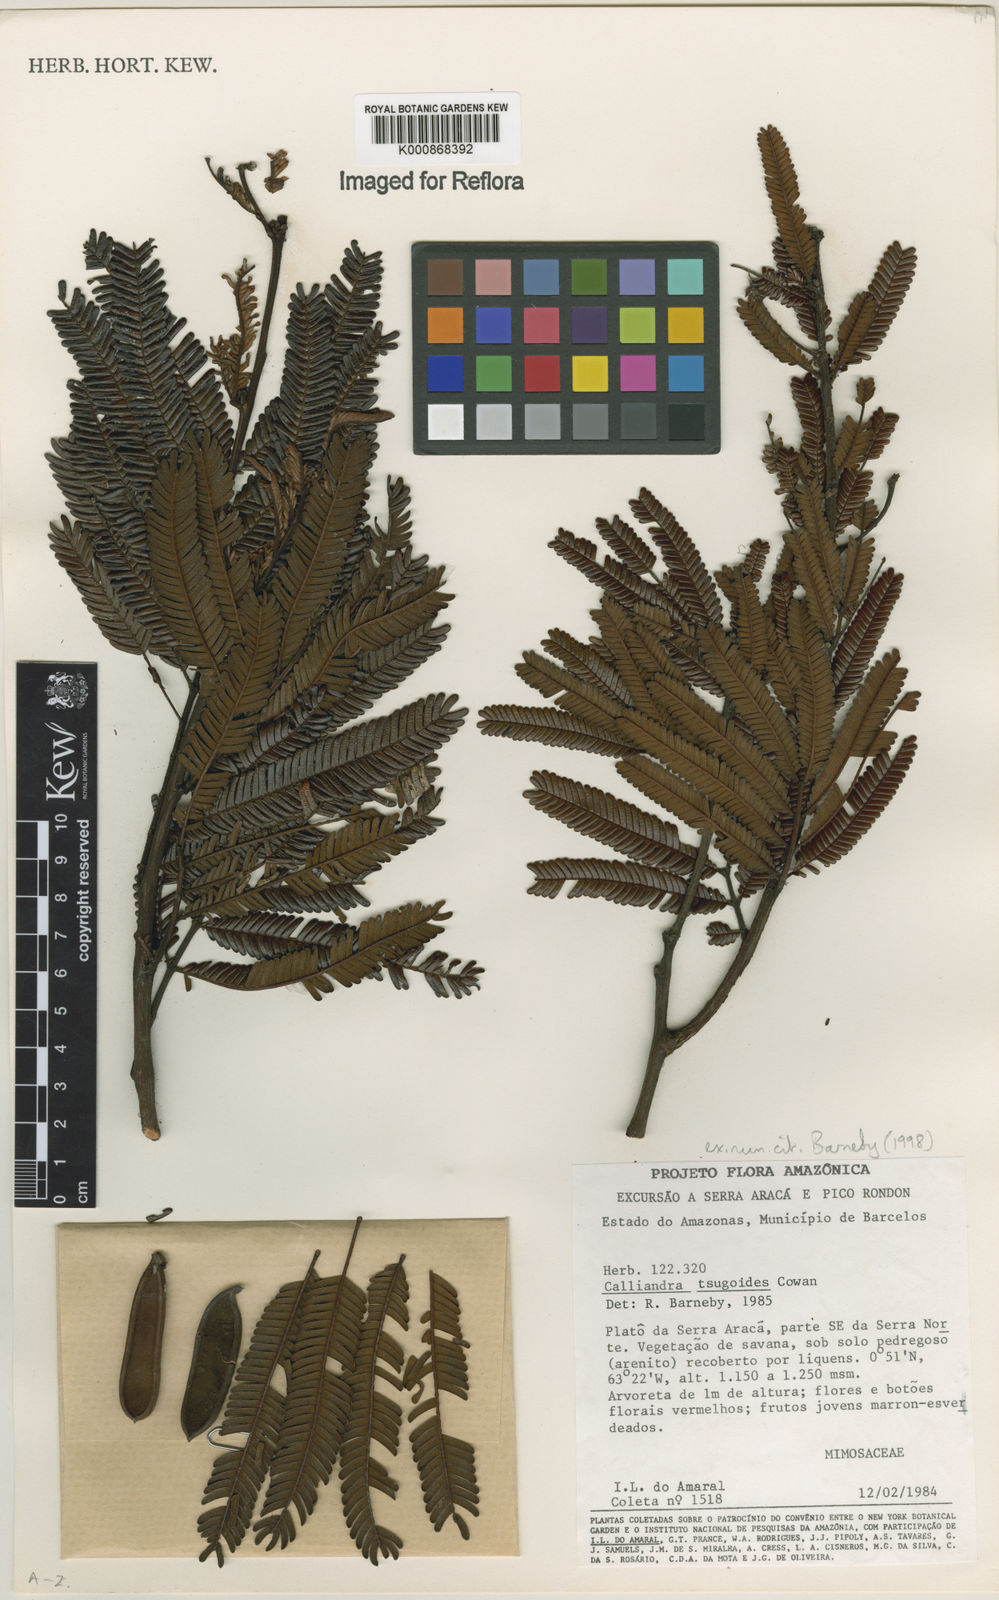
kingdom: Plantae
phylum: Tracheophyta
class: Magnoliopsida
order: Fabales
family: Fabaceae
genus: Calliandra
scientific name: Calliandra tsugoides
